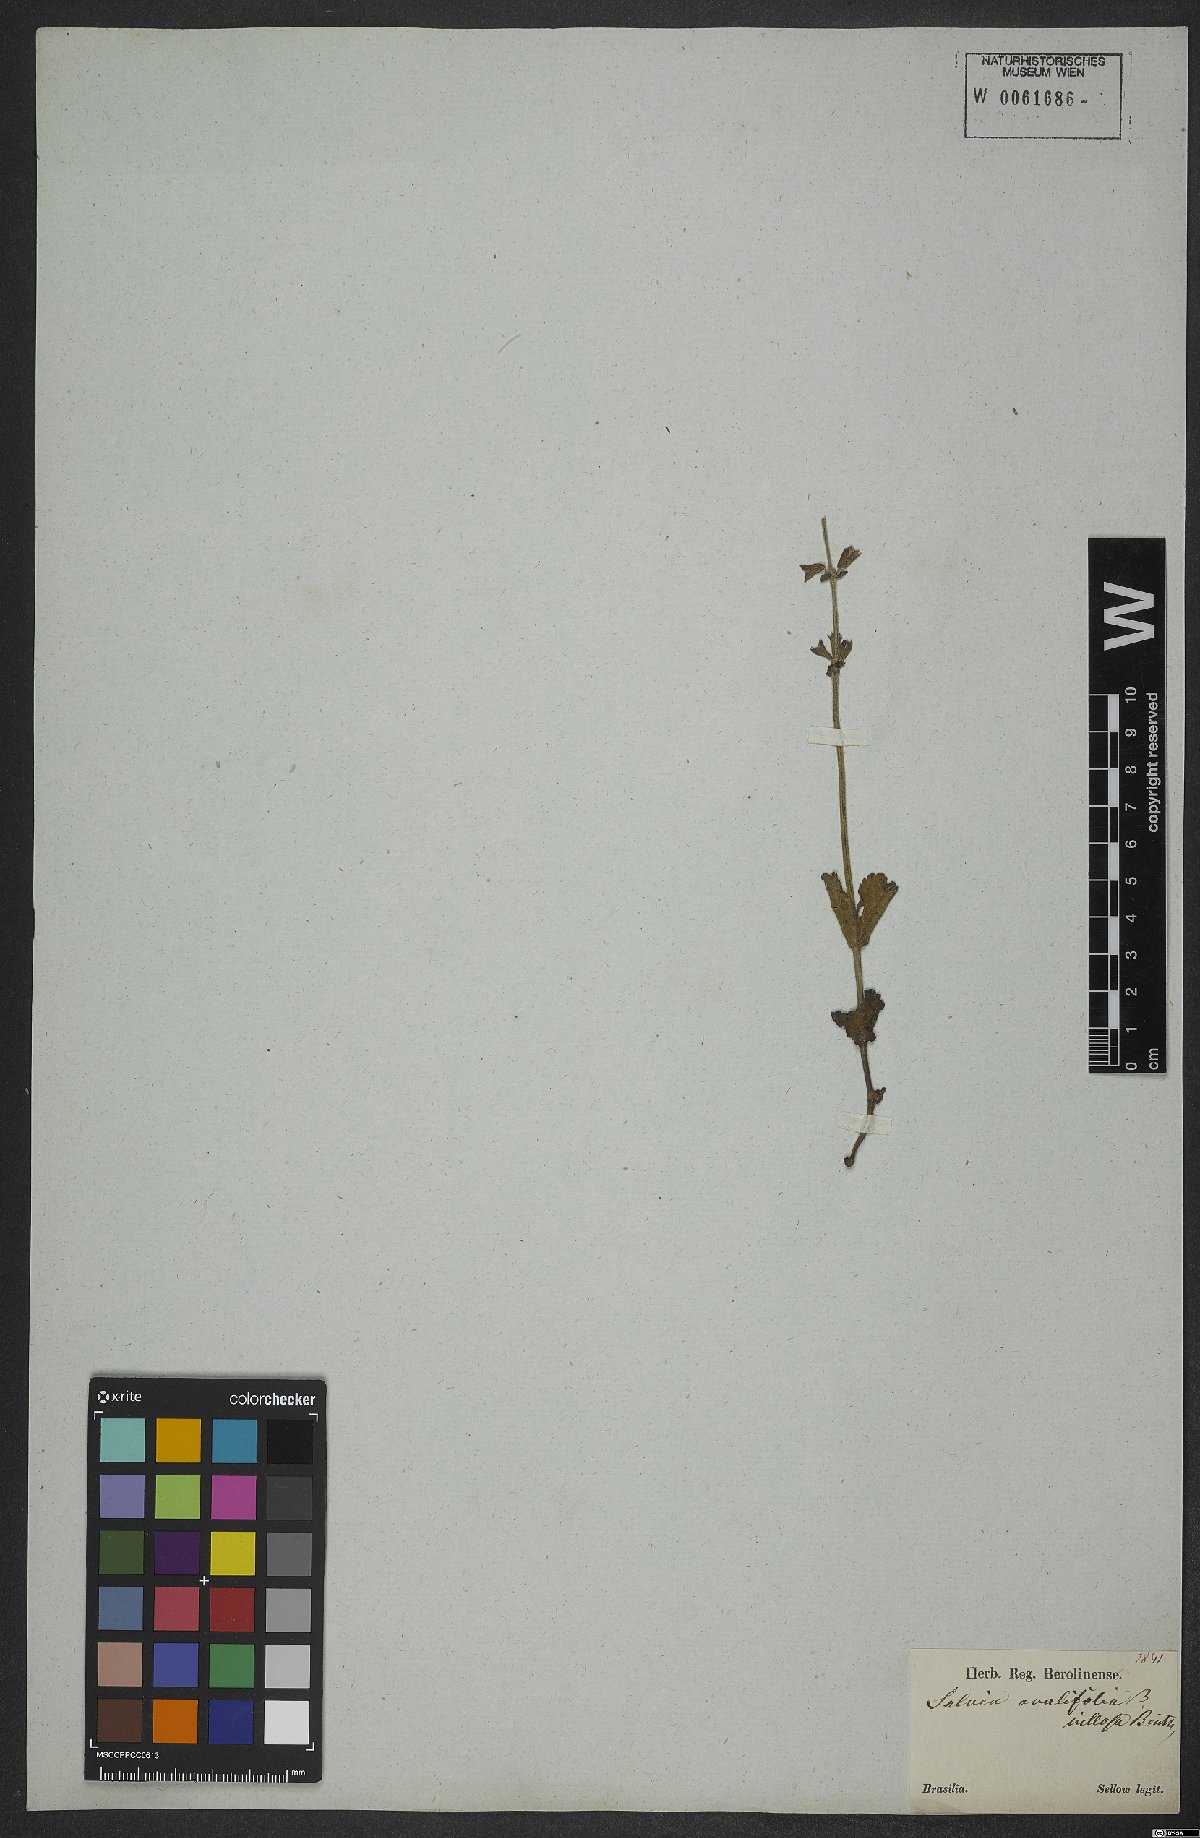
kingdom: Plantae
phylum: Tracheophyta
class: Magnoliopsida
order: Lamiales
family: Lamiaceae
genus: Salvia
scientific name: Salvia ovalifolia
